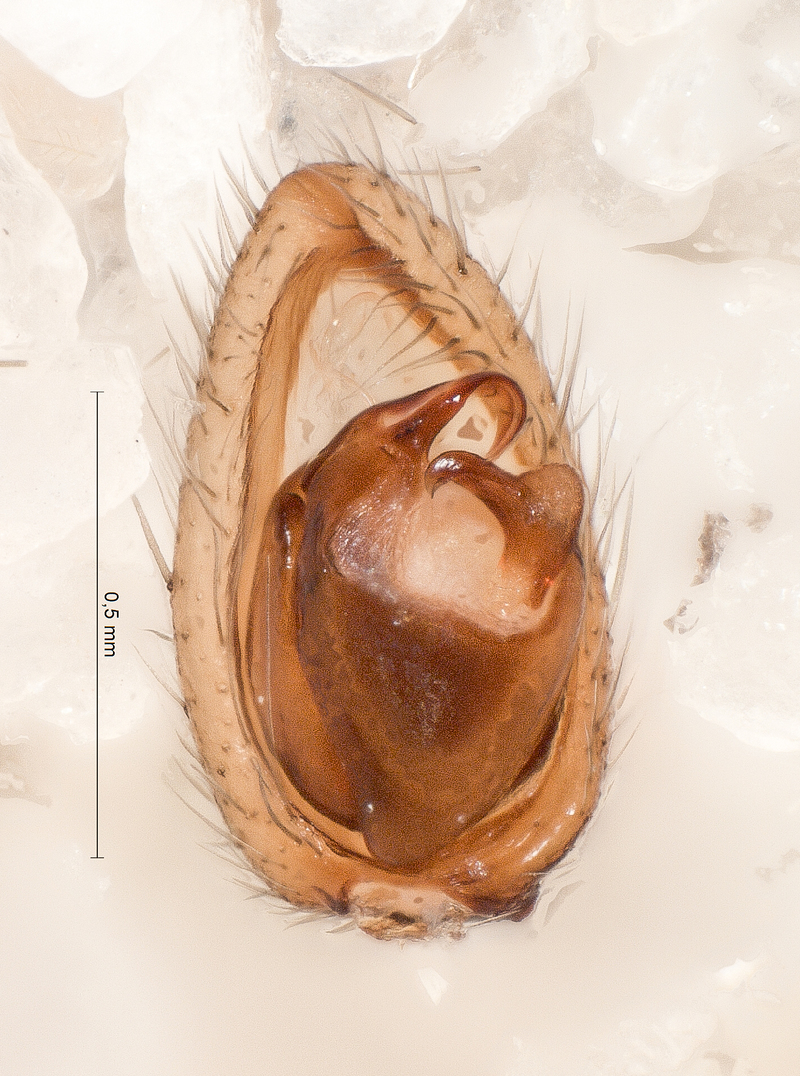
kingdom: Animalia
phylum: Arthropoda
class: Arachnida
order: Araneae
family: Liocranidae
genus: Agroeca
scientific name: Agroeca proxima
